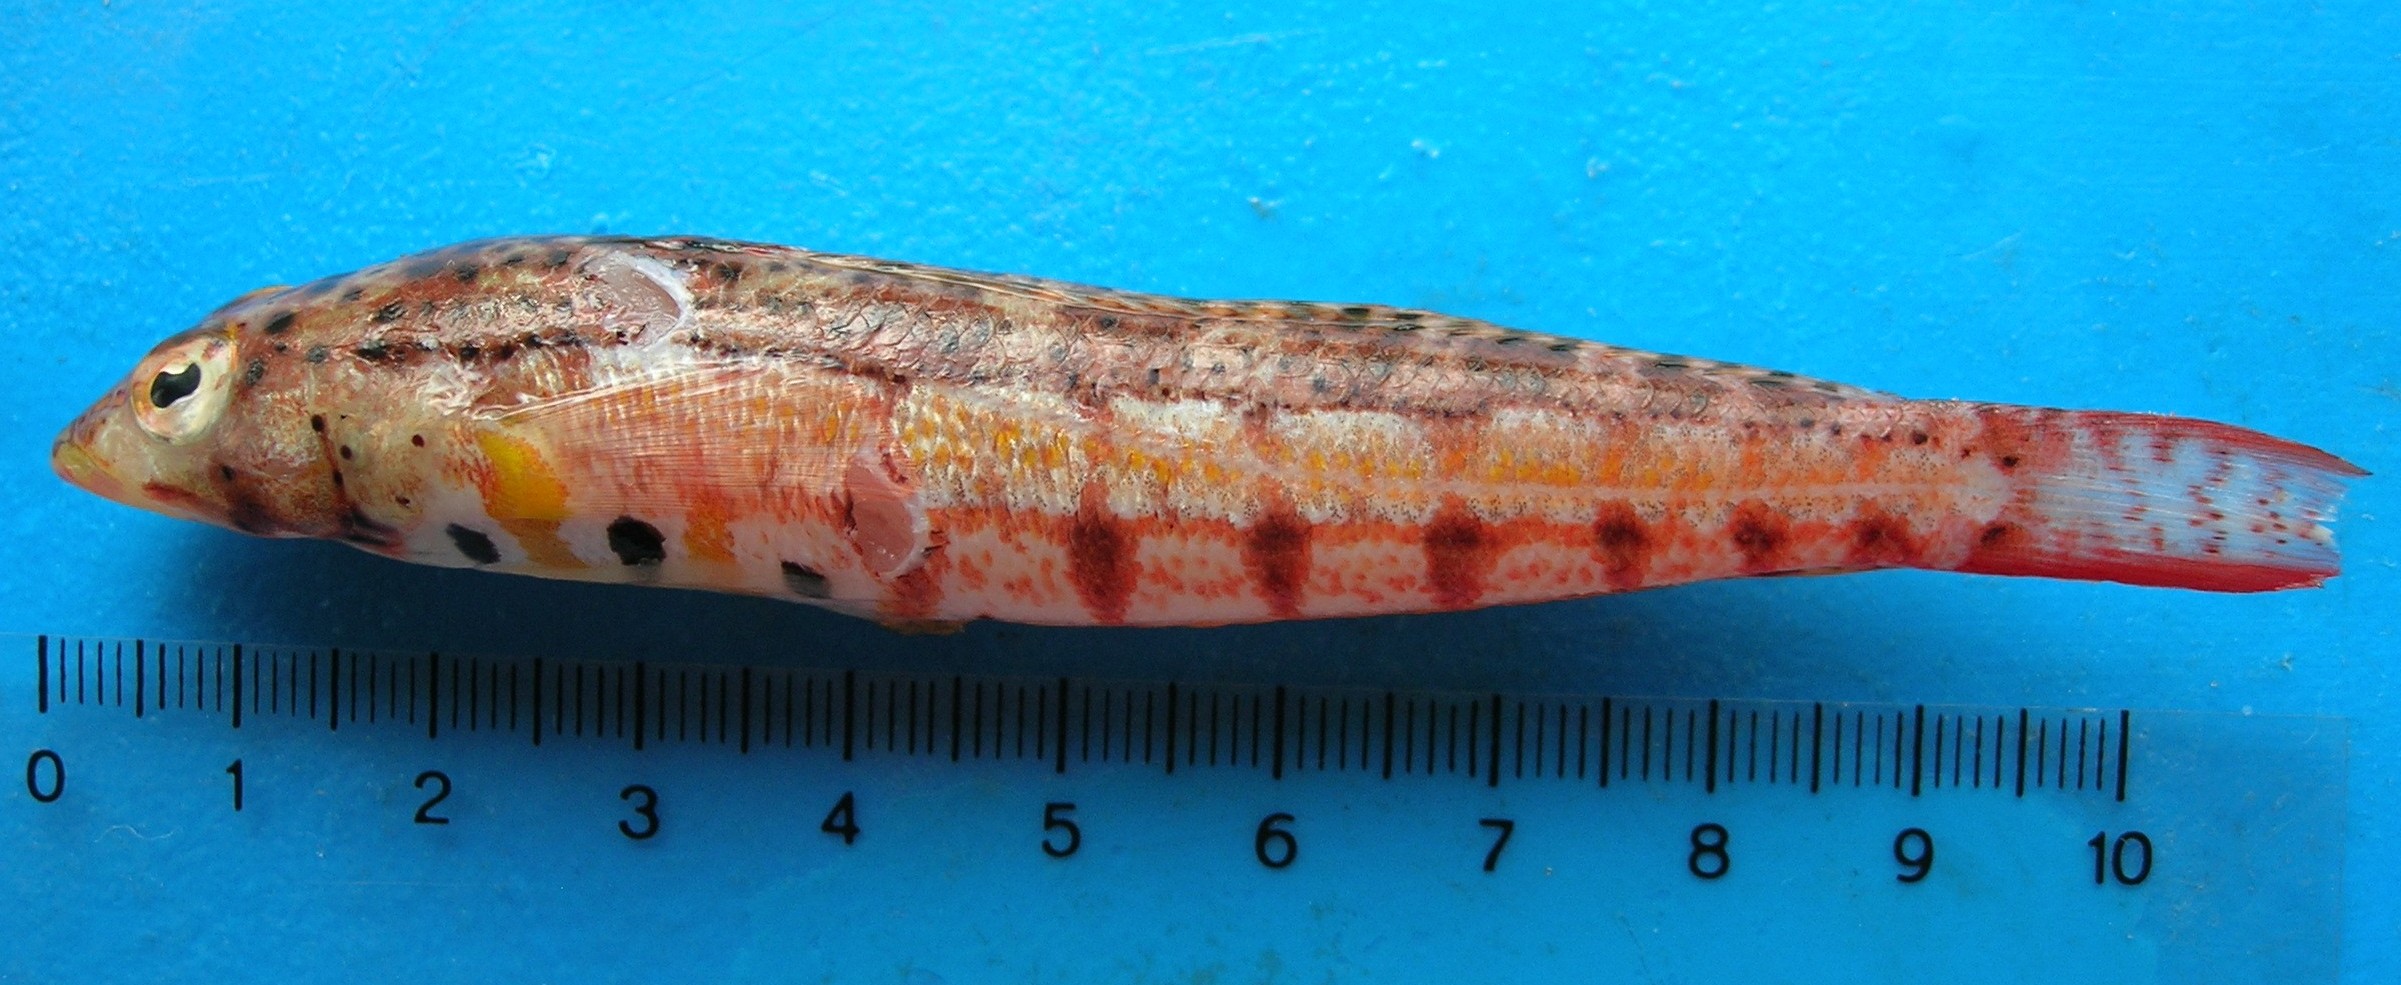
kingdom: Animalia
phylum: Chordata
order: Perciformes
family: Pinguipedidae
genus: Parapercis
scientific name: Parapercis punctulata
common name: Spotted sandperch
